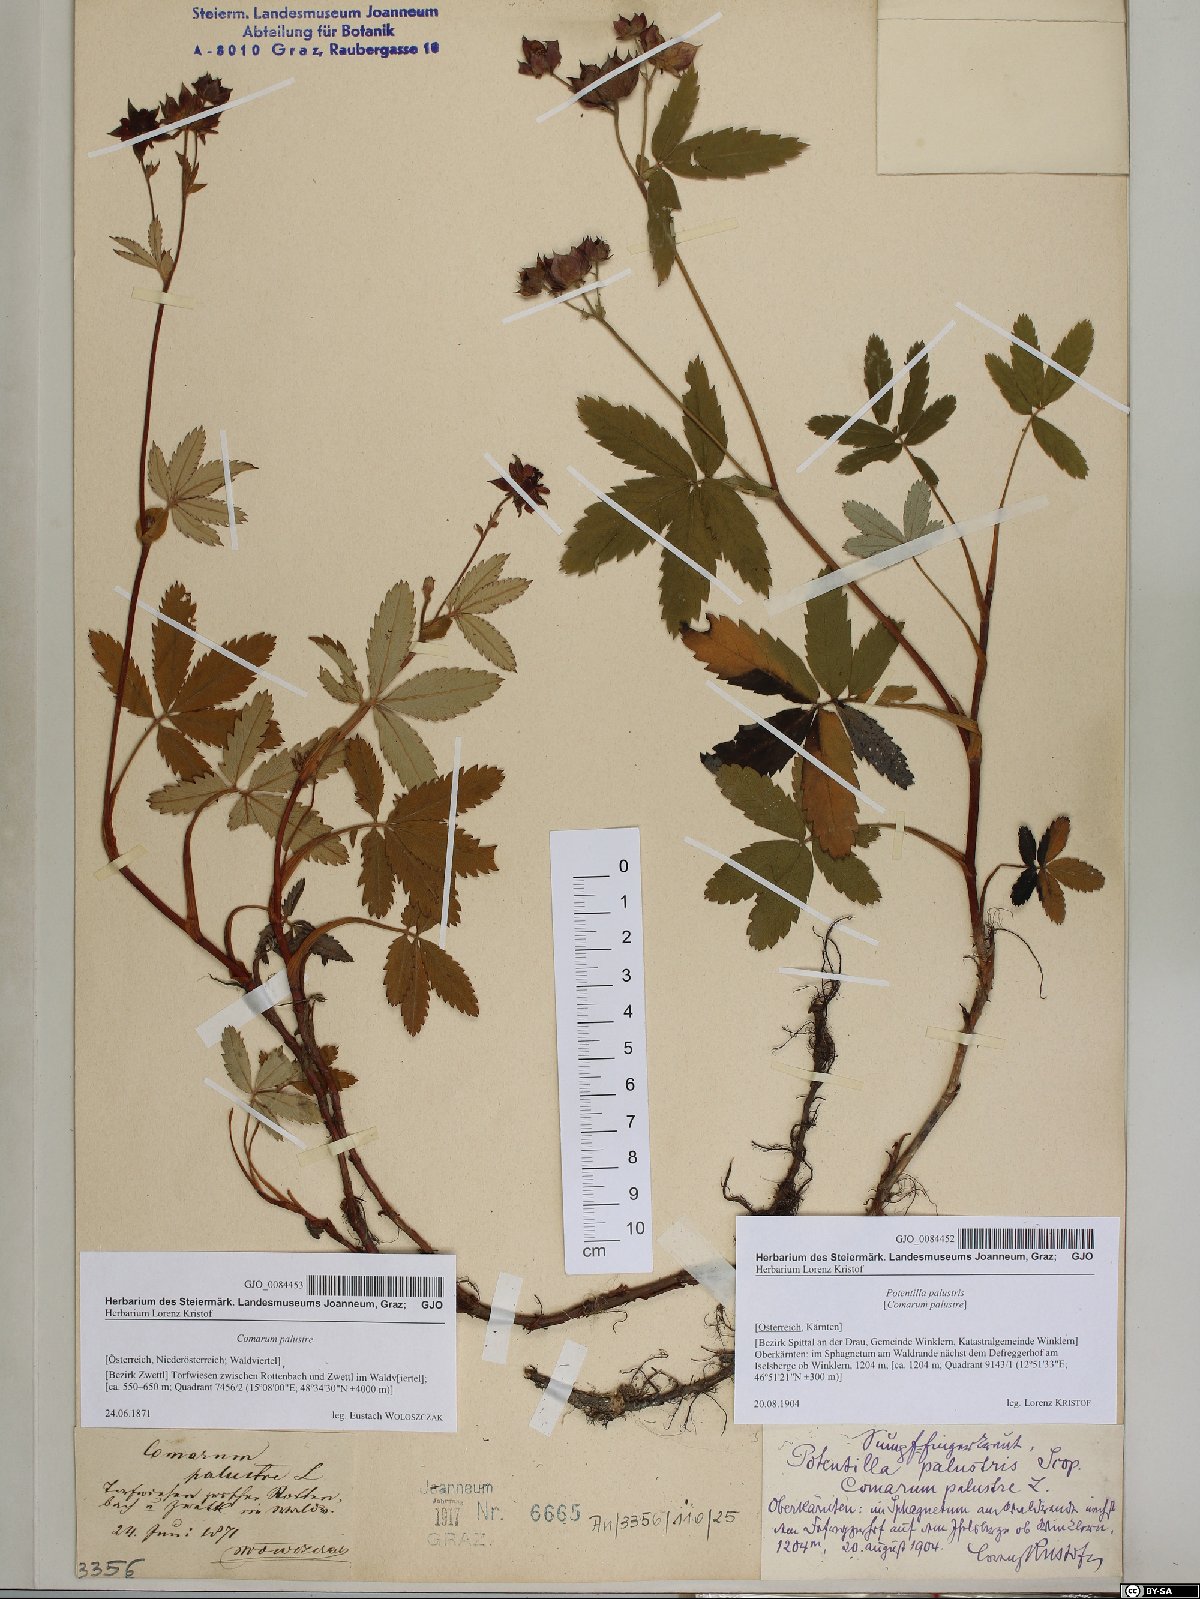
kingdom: Plantae
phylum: Tracheophyta
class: Magnoliopsida
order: Rosales
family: Rosaceae
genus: Comarum
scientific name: Comarum palustre
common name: Marsh cinquefoil
